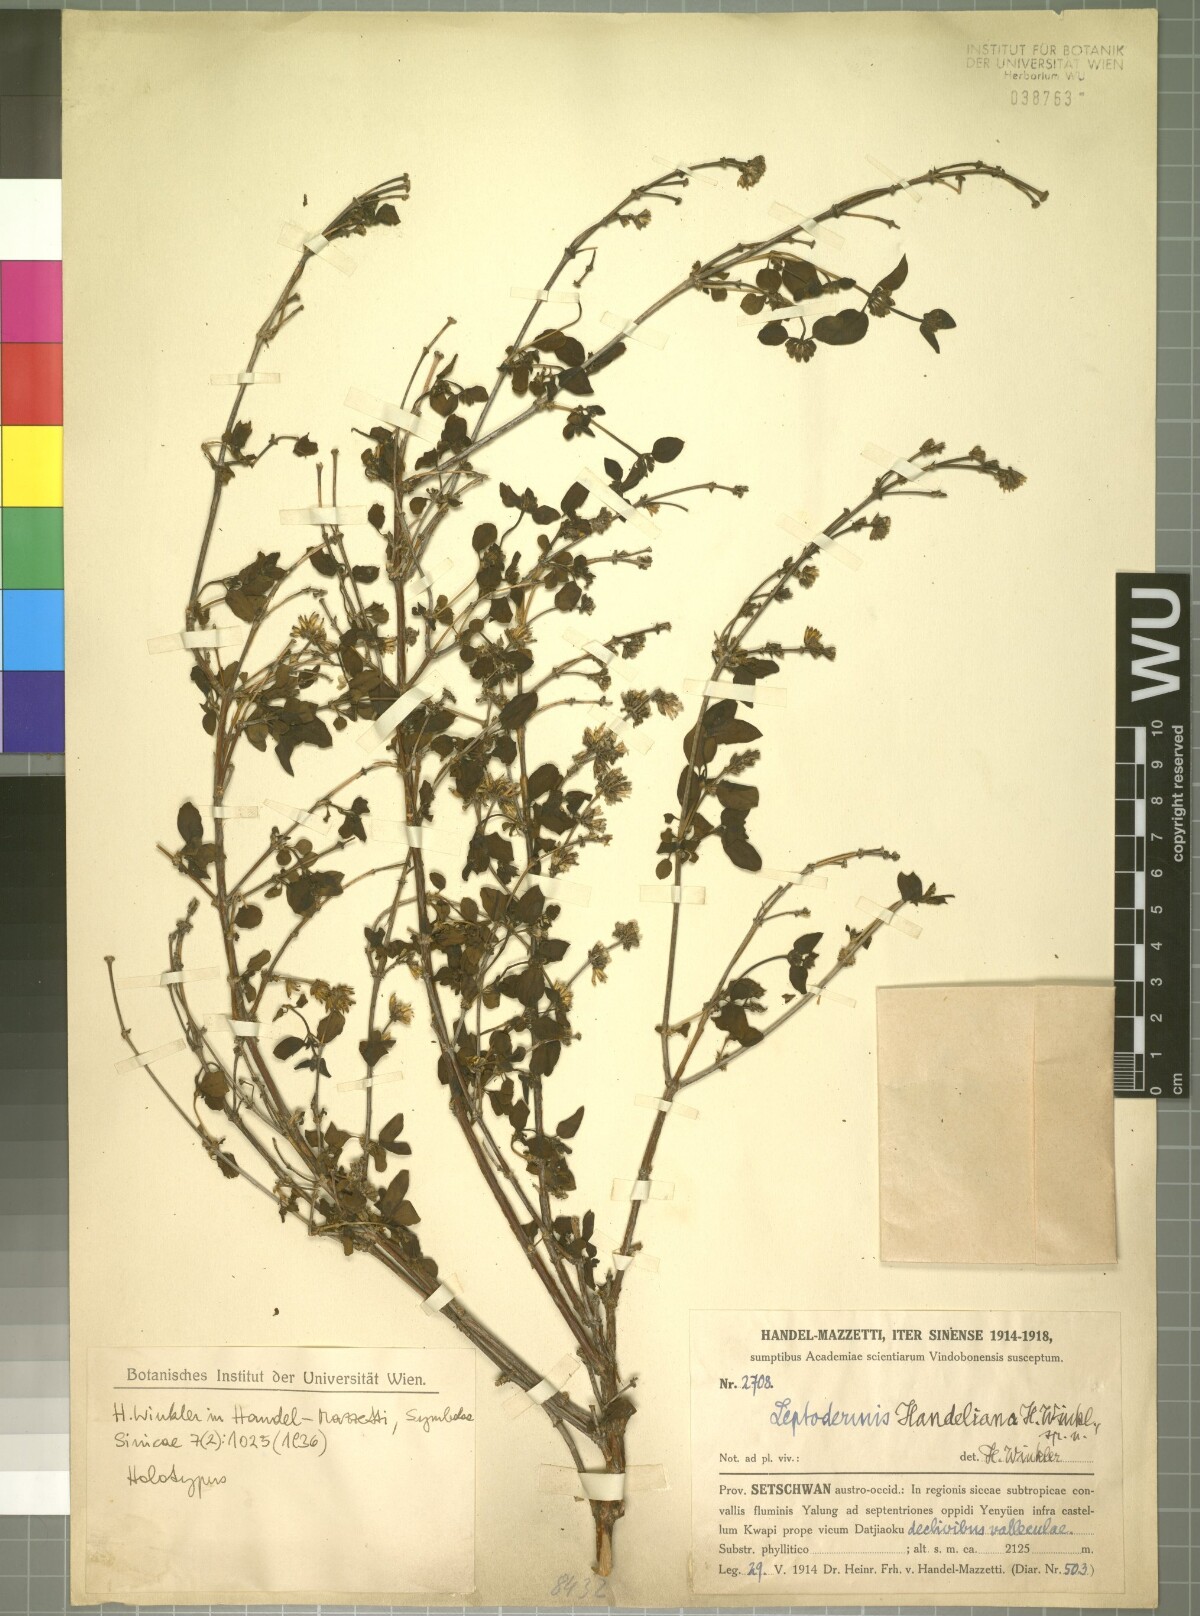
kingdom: Plantae
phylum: Tracheophyta
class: Magnoliopsida
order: Gentianales
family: Rubiaceae
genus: Leptodermis
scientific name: Leptodermis handeliana
